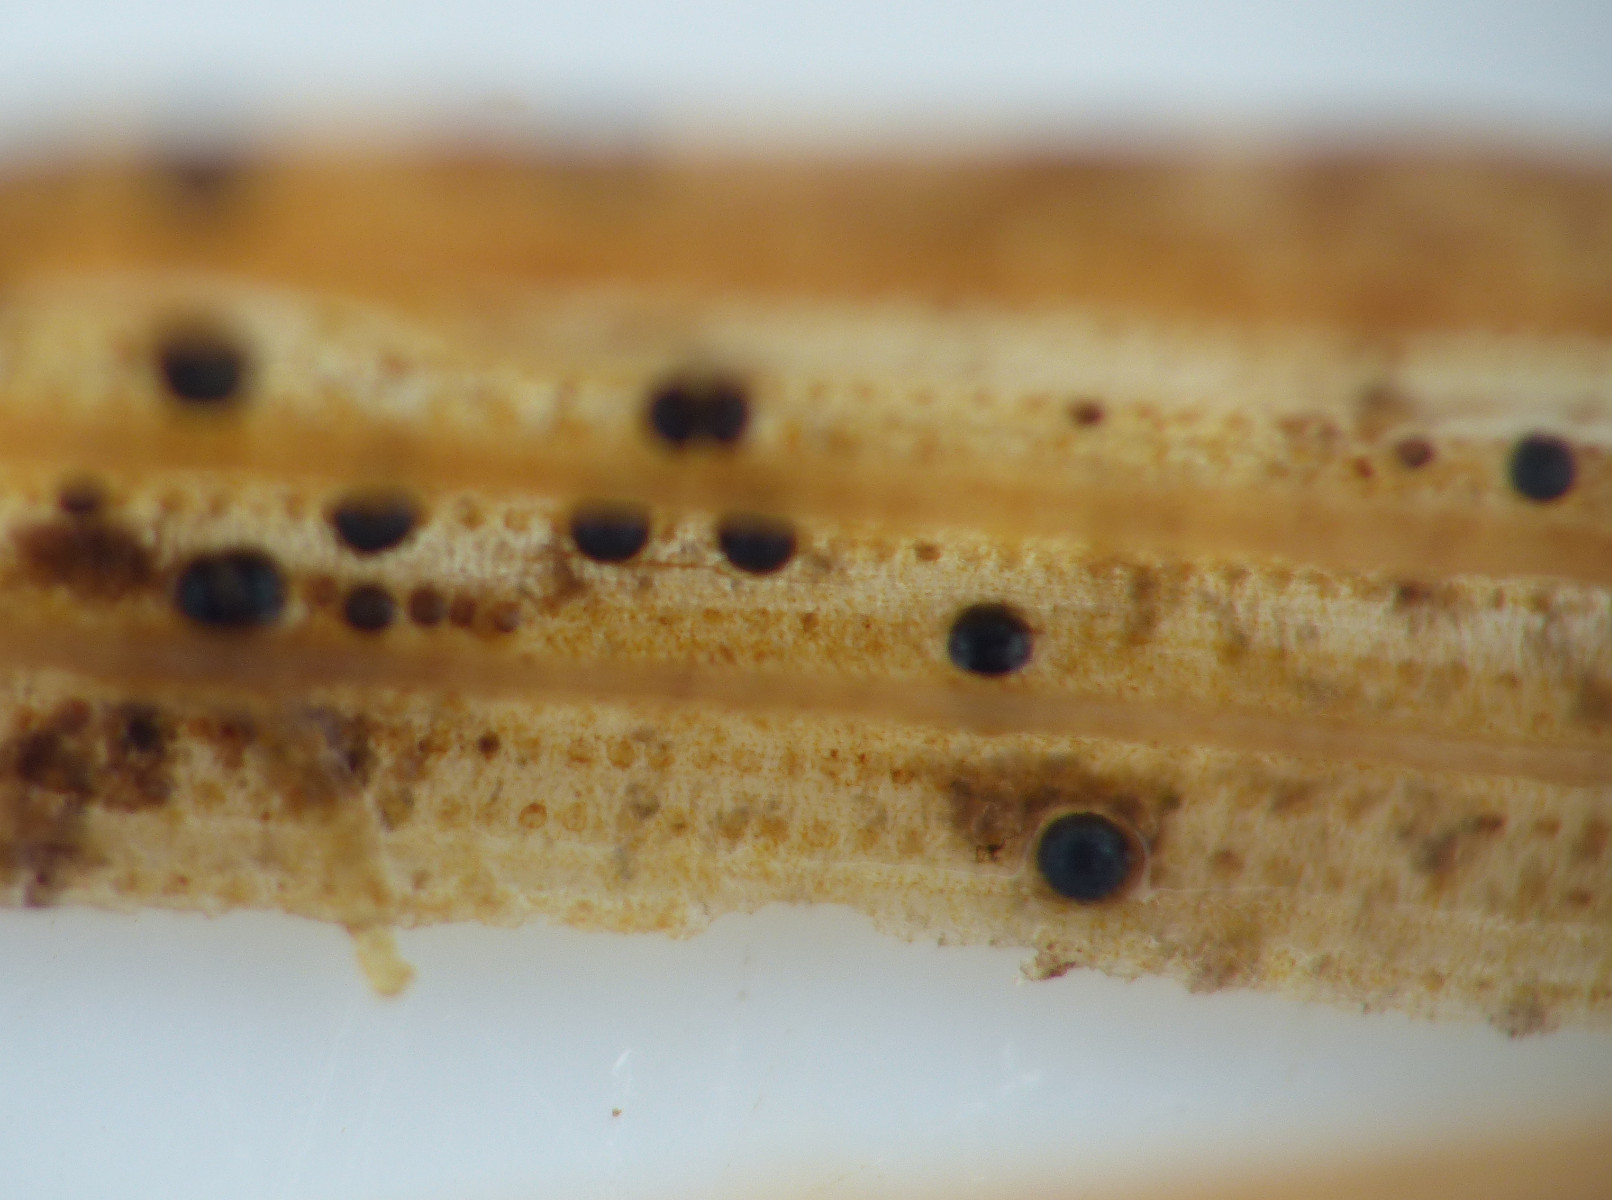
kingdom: Fungi
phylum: Ascomycota
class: Dothideomycetes
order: Pleosporales
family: Phaeosphaeriaceae
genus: Phaeosphaeria
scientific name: Phaeosphaeria berlesei
